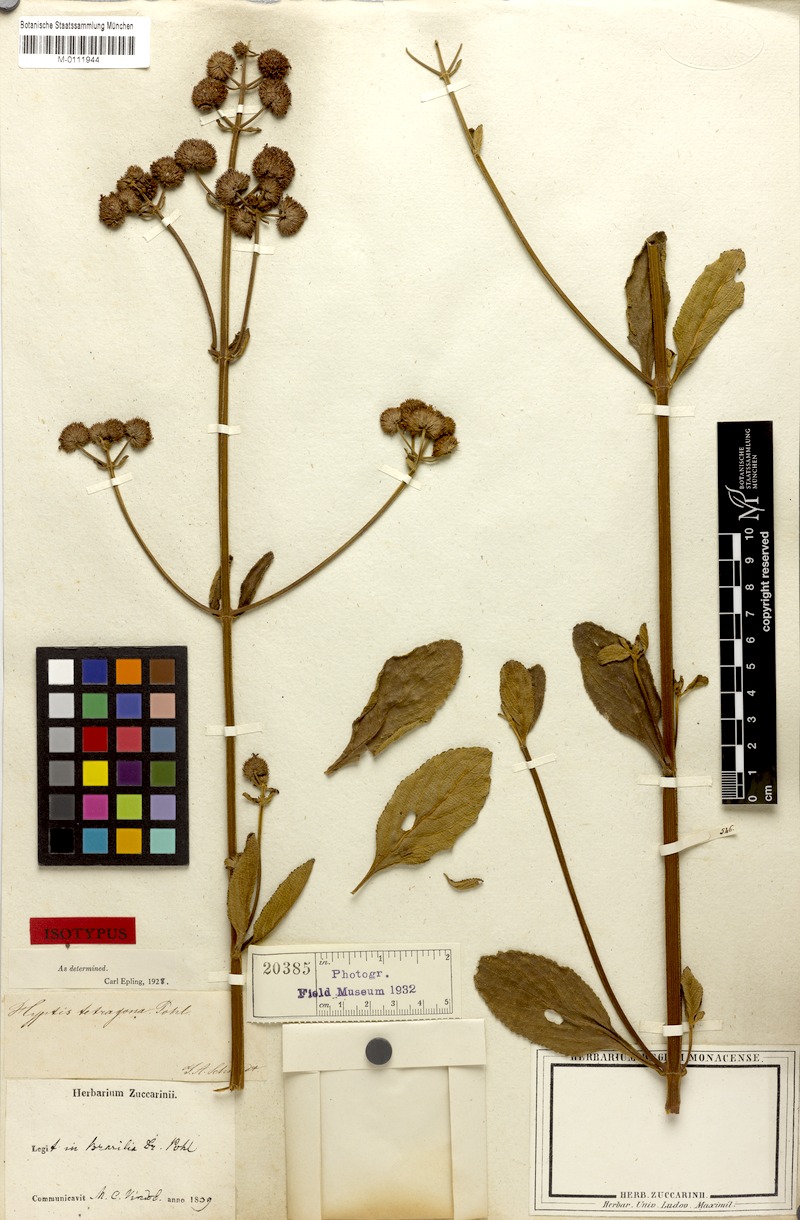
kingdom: Plantae
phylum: Tracheophyta
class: Magnoliopsida
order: Lamiales
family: Lamiaceae
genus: Hyptis
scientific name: Hyptis tetragona
